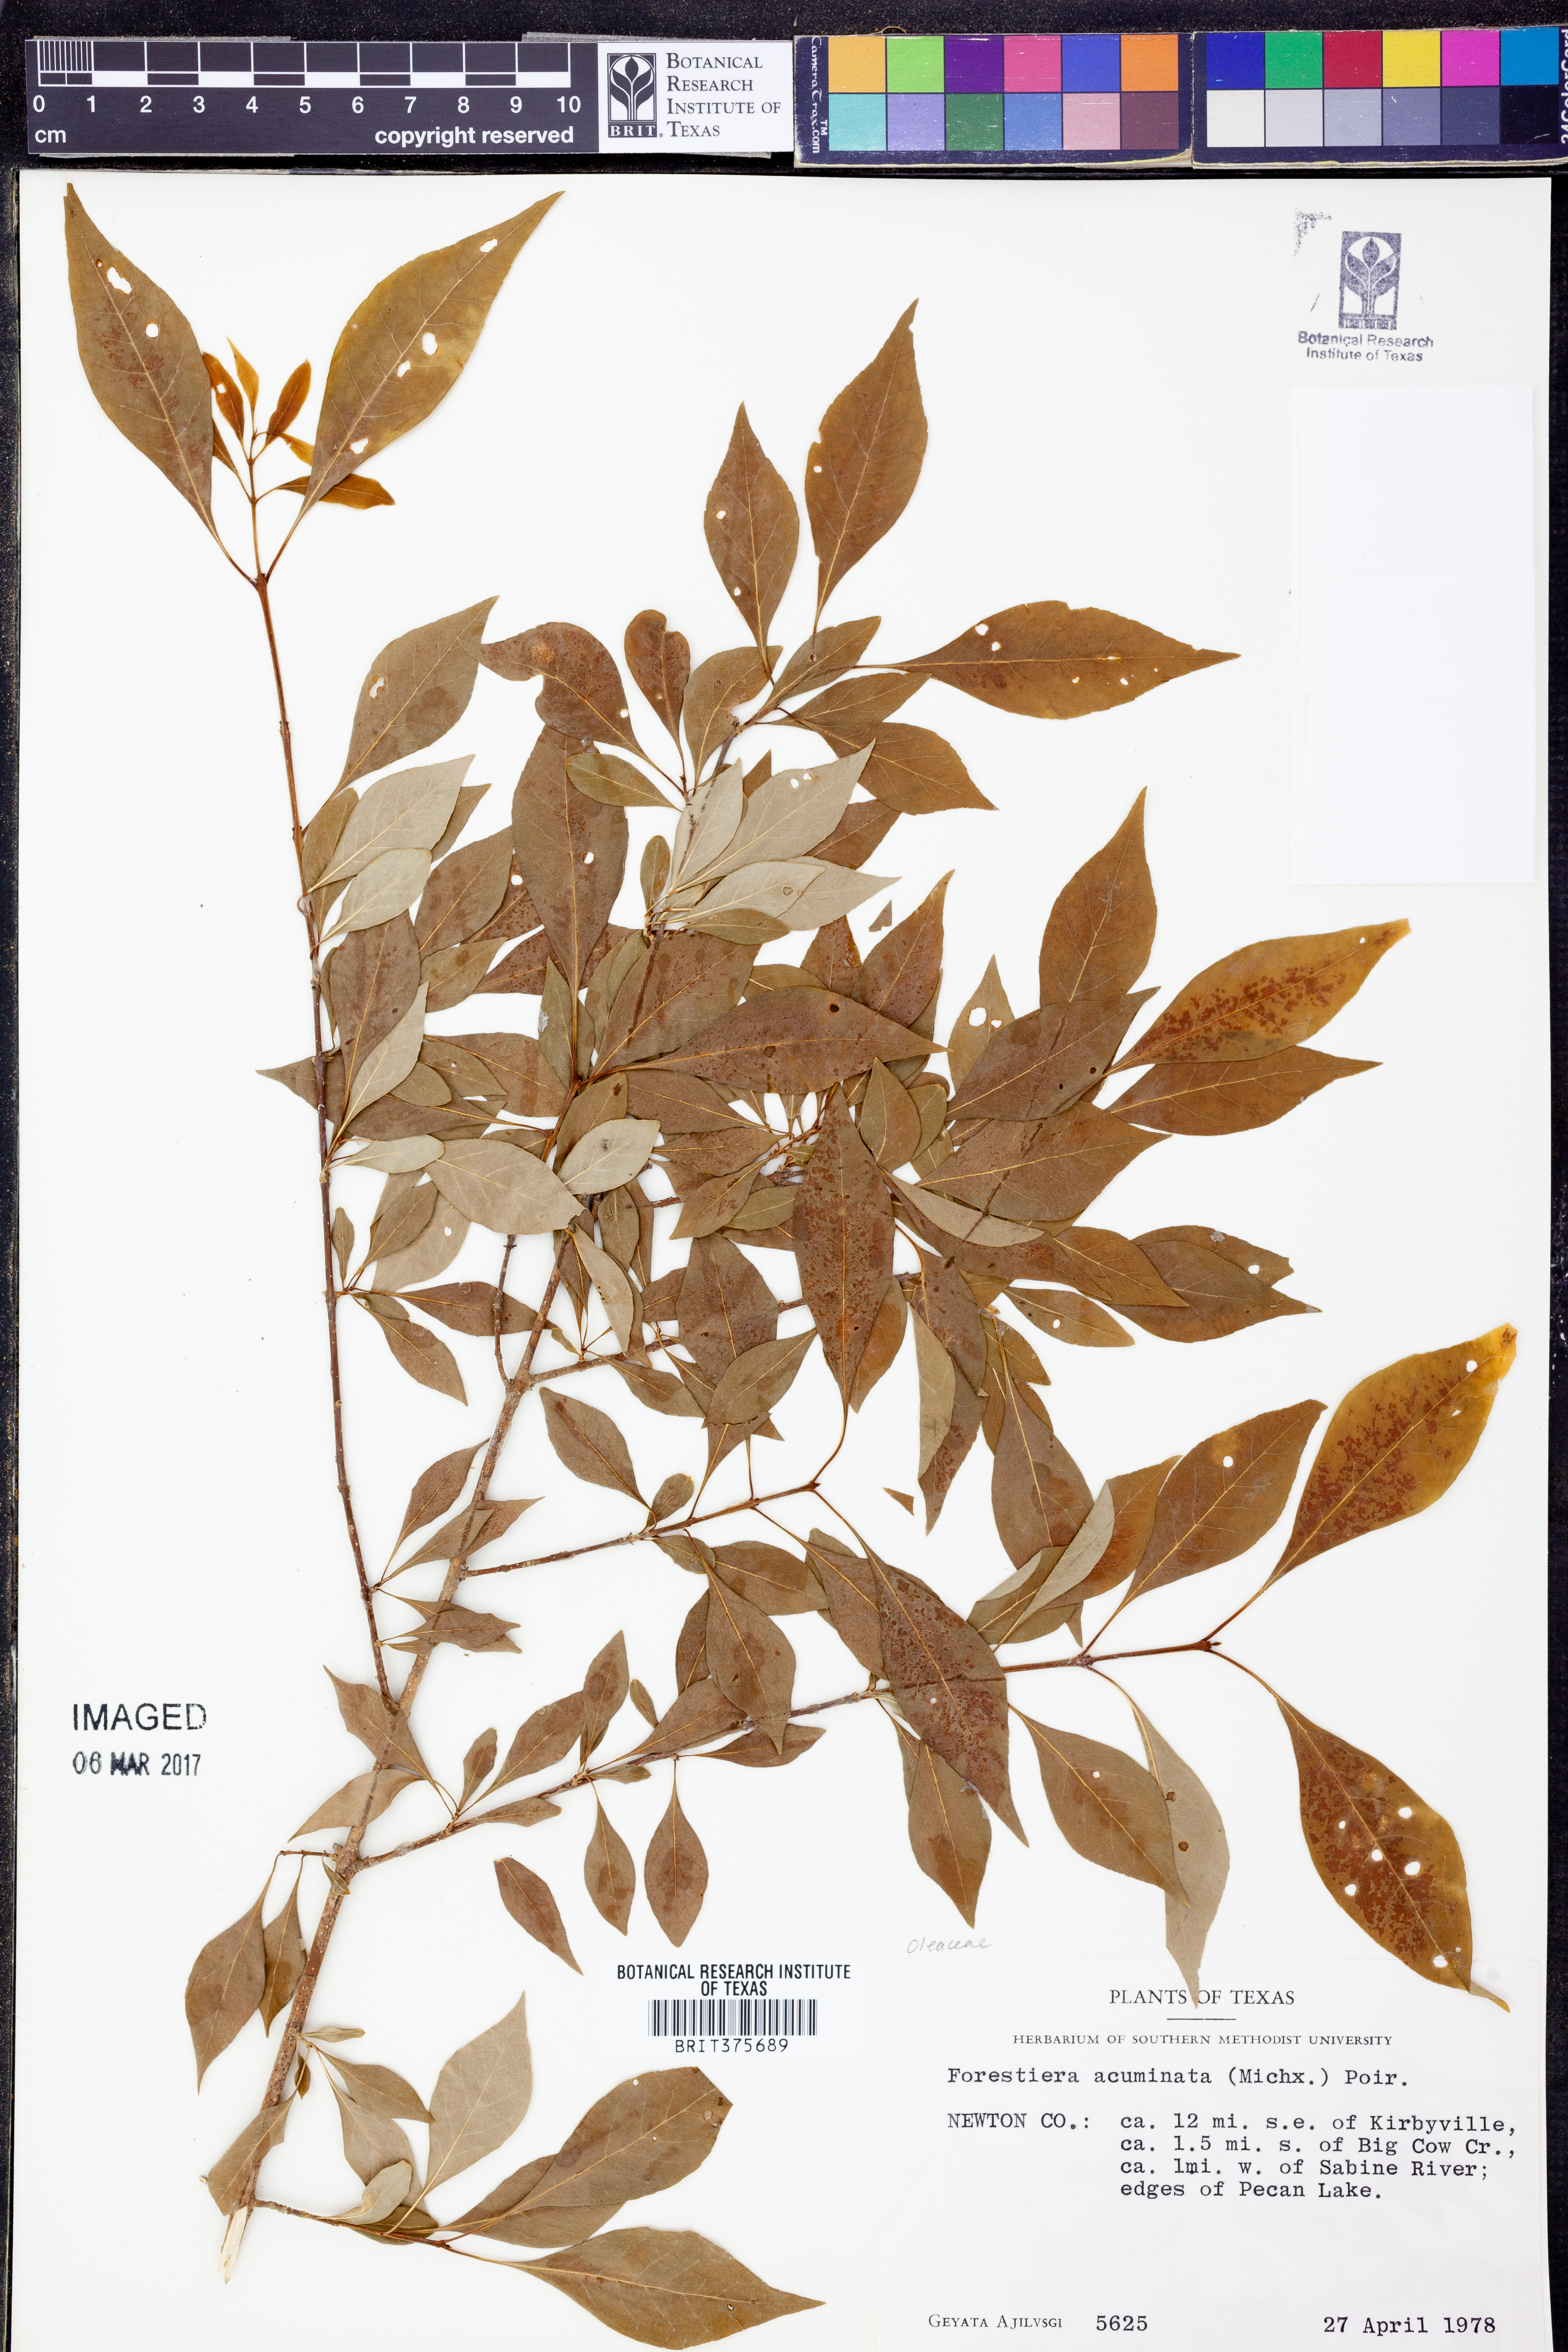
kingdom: Plantae
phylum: Tracheophyta
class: Magnoliopsida
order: Lamiales
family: Oleaceae
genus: Forestiera
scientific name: Forestiera acuminata
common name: Swamp-privet
